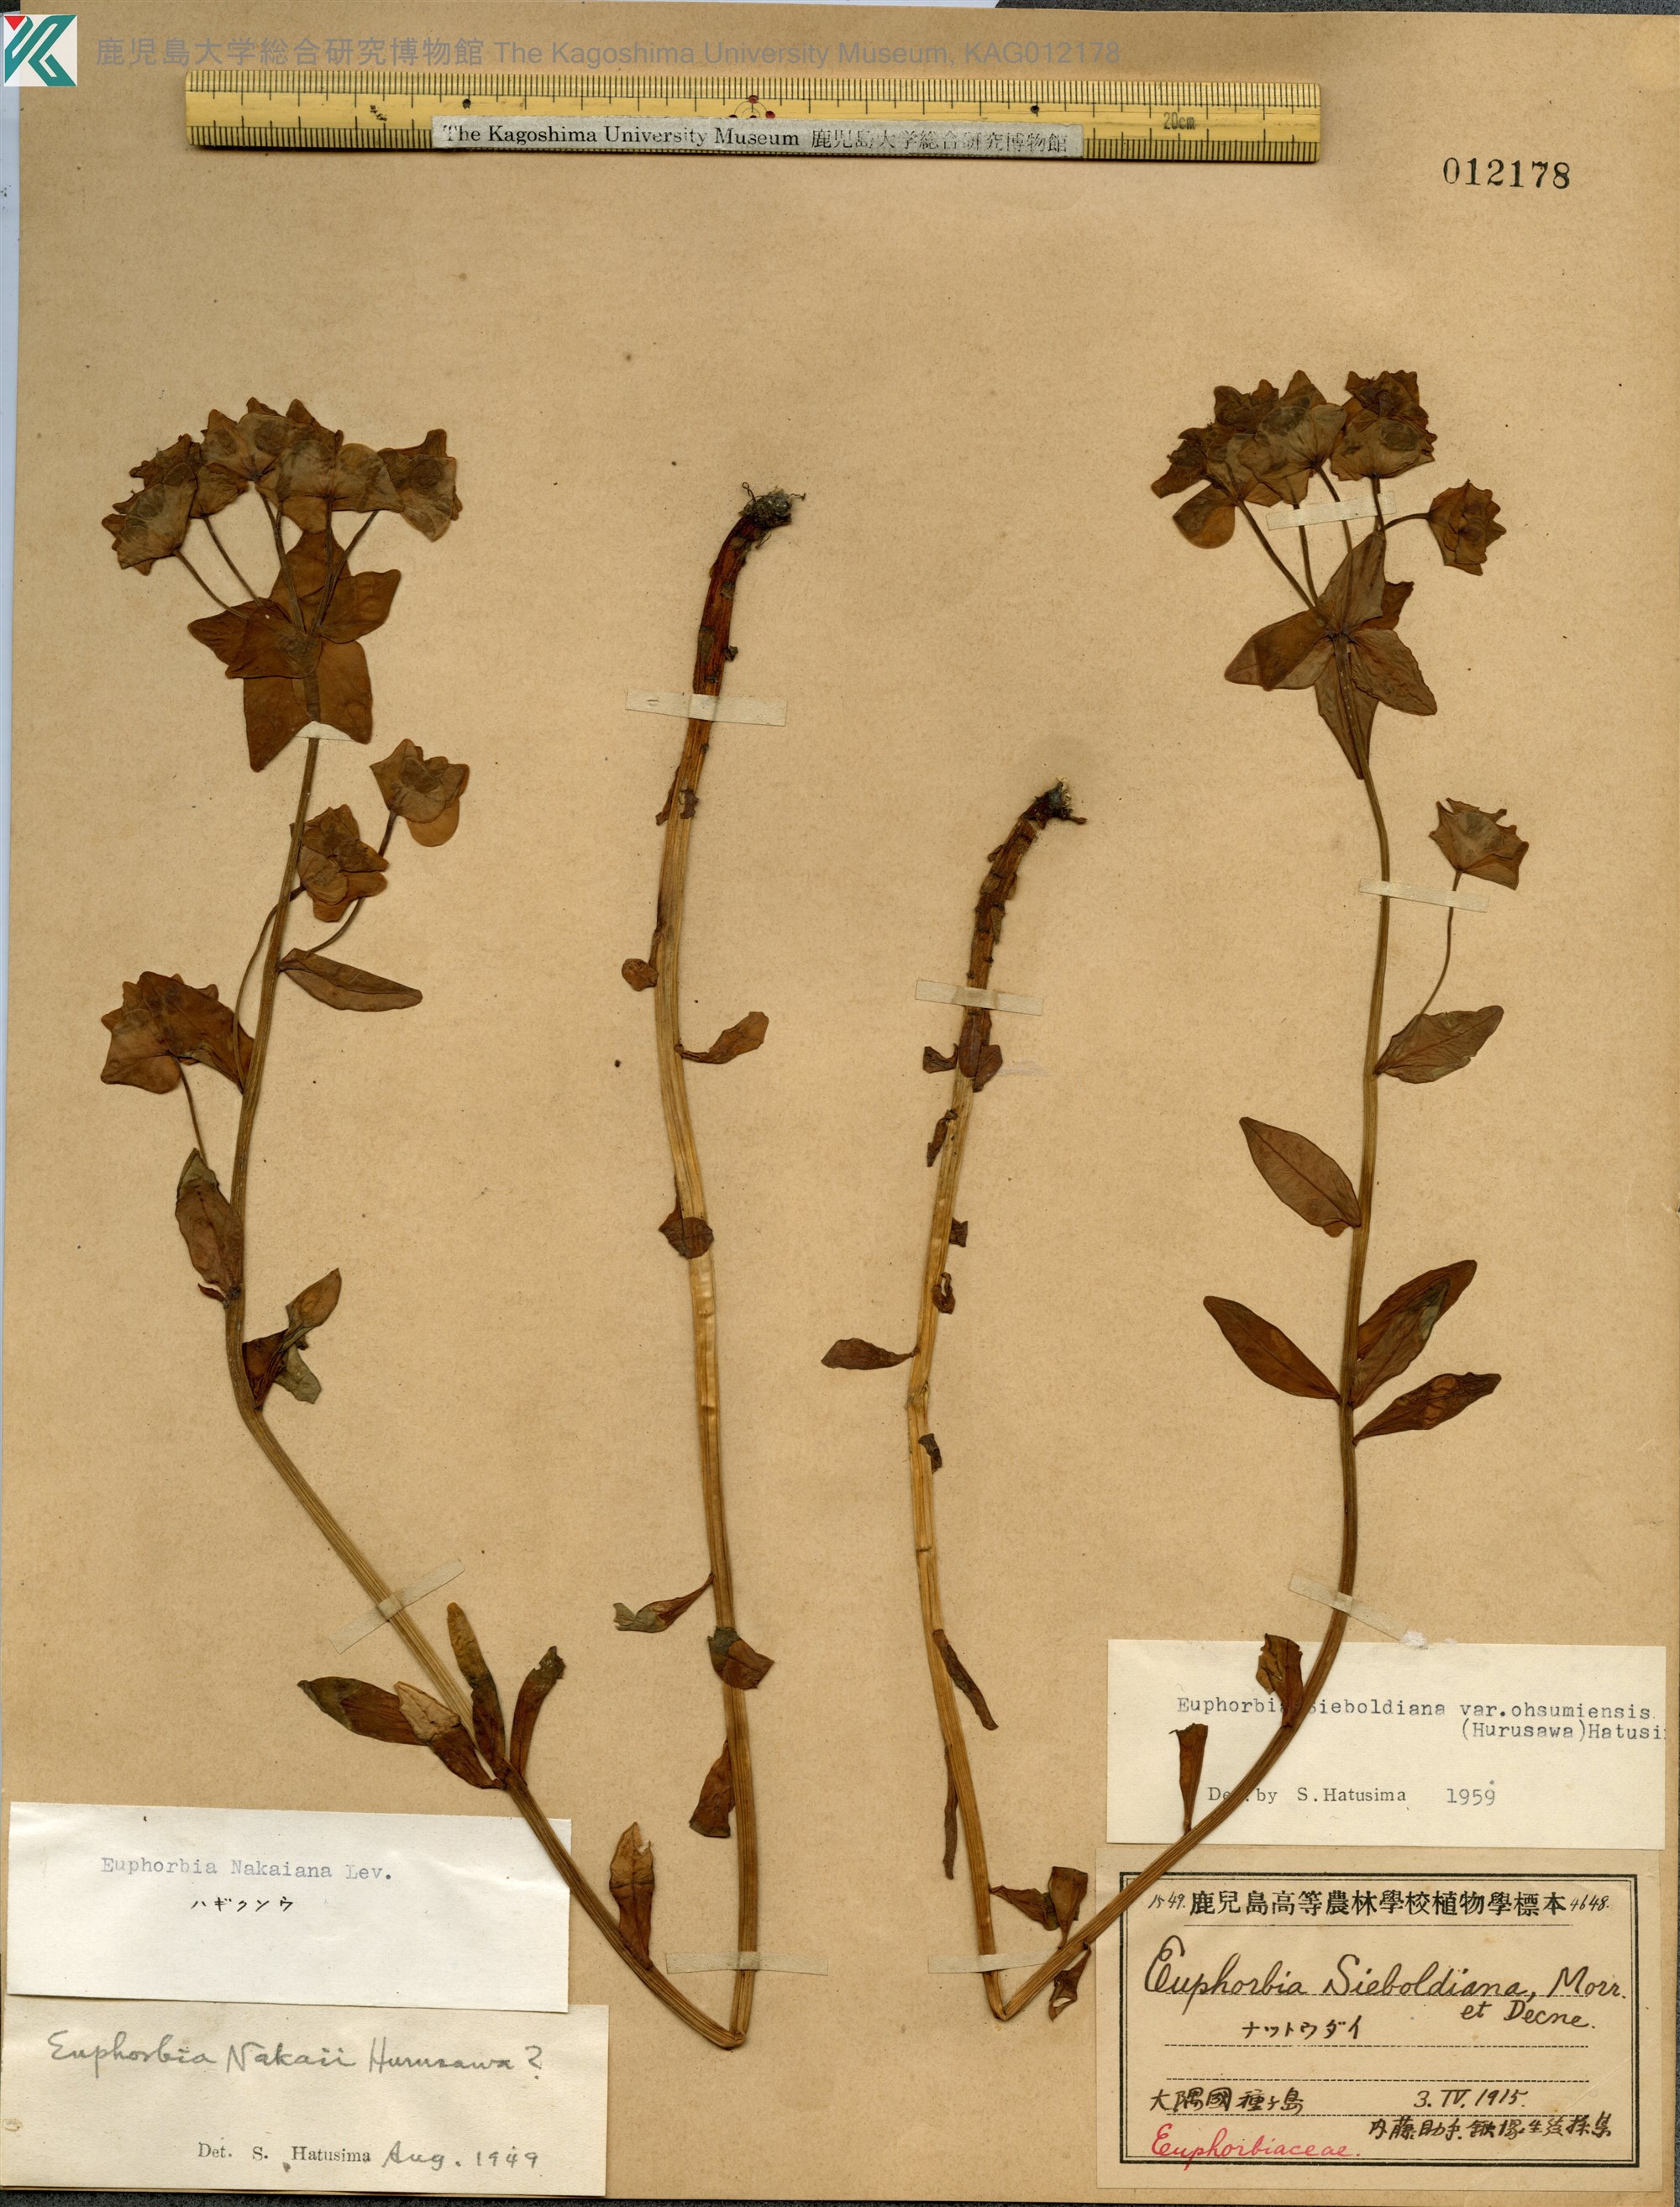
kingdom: Plantae
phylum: Tracheophyta
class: Magnoliopsida
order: Malpighiales
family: Euphorbiaceae
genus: Euphorbia
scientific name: Euphorbia sieboldiana
